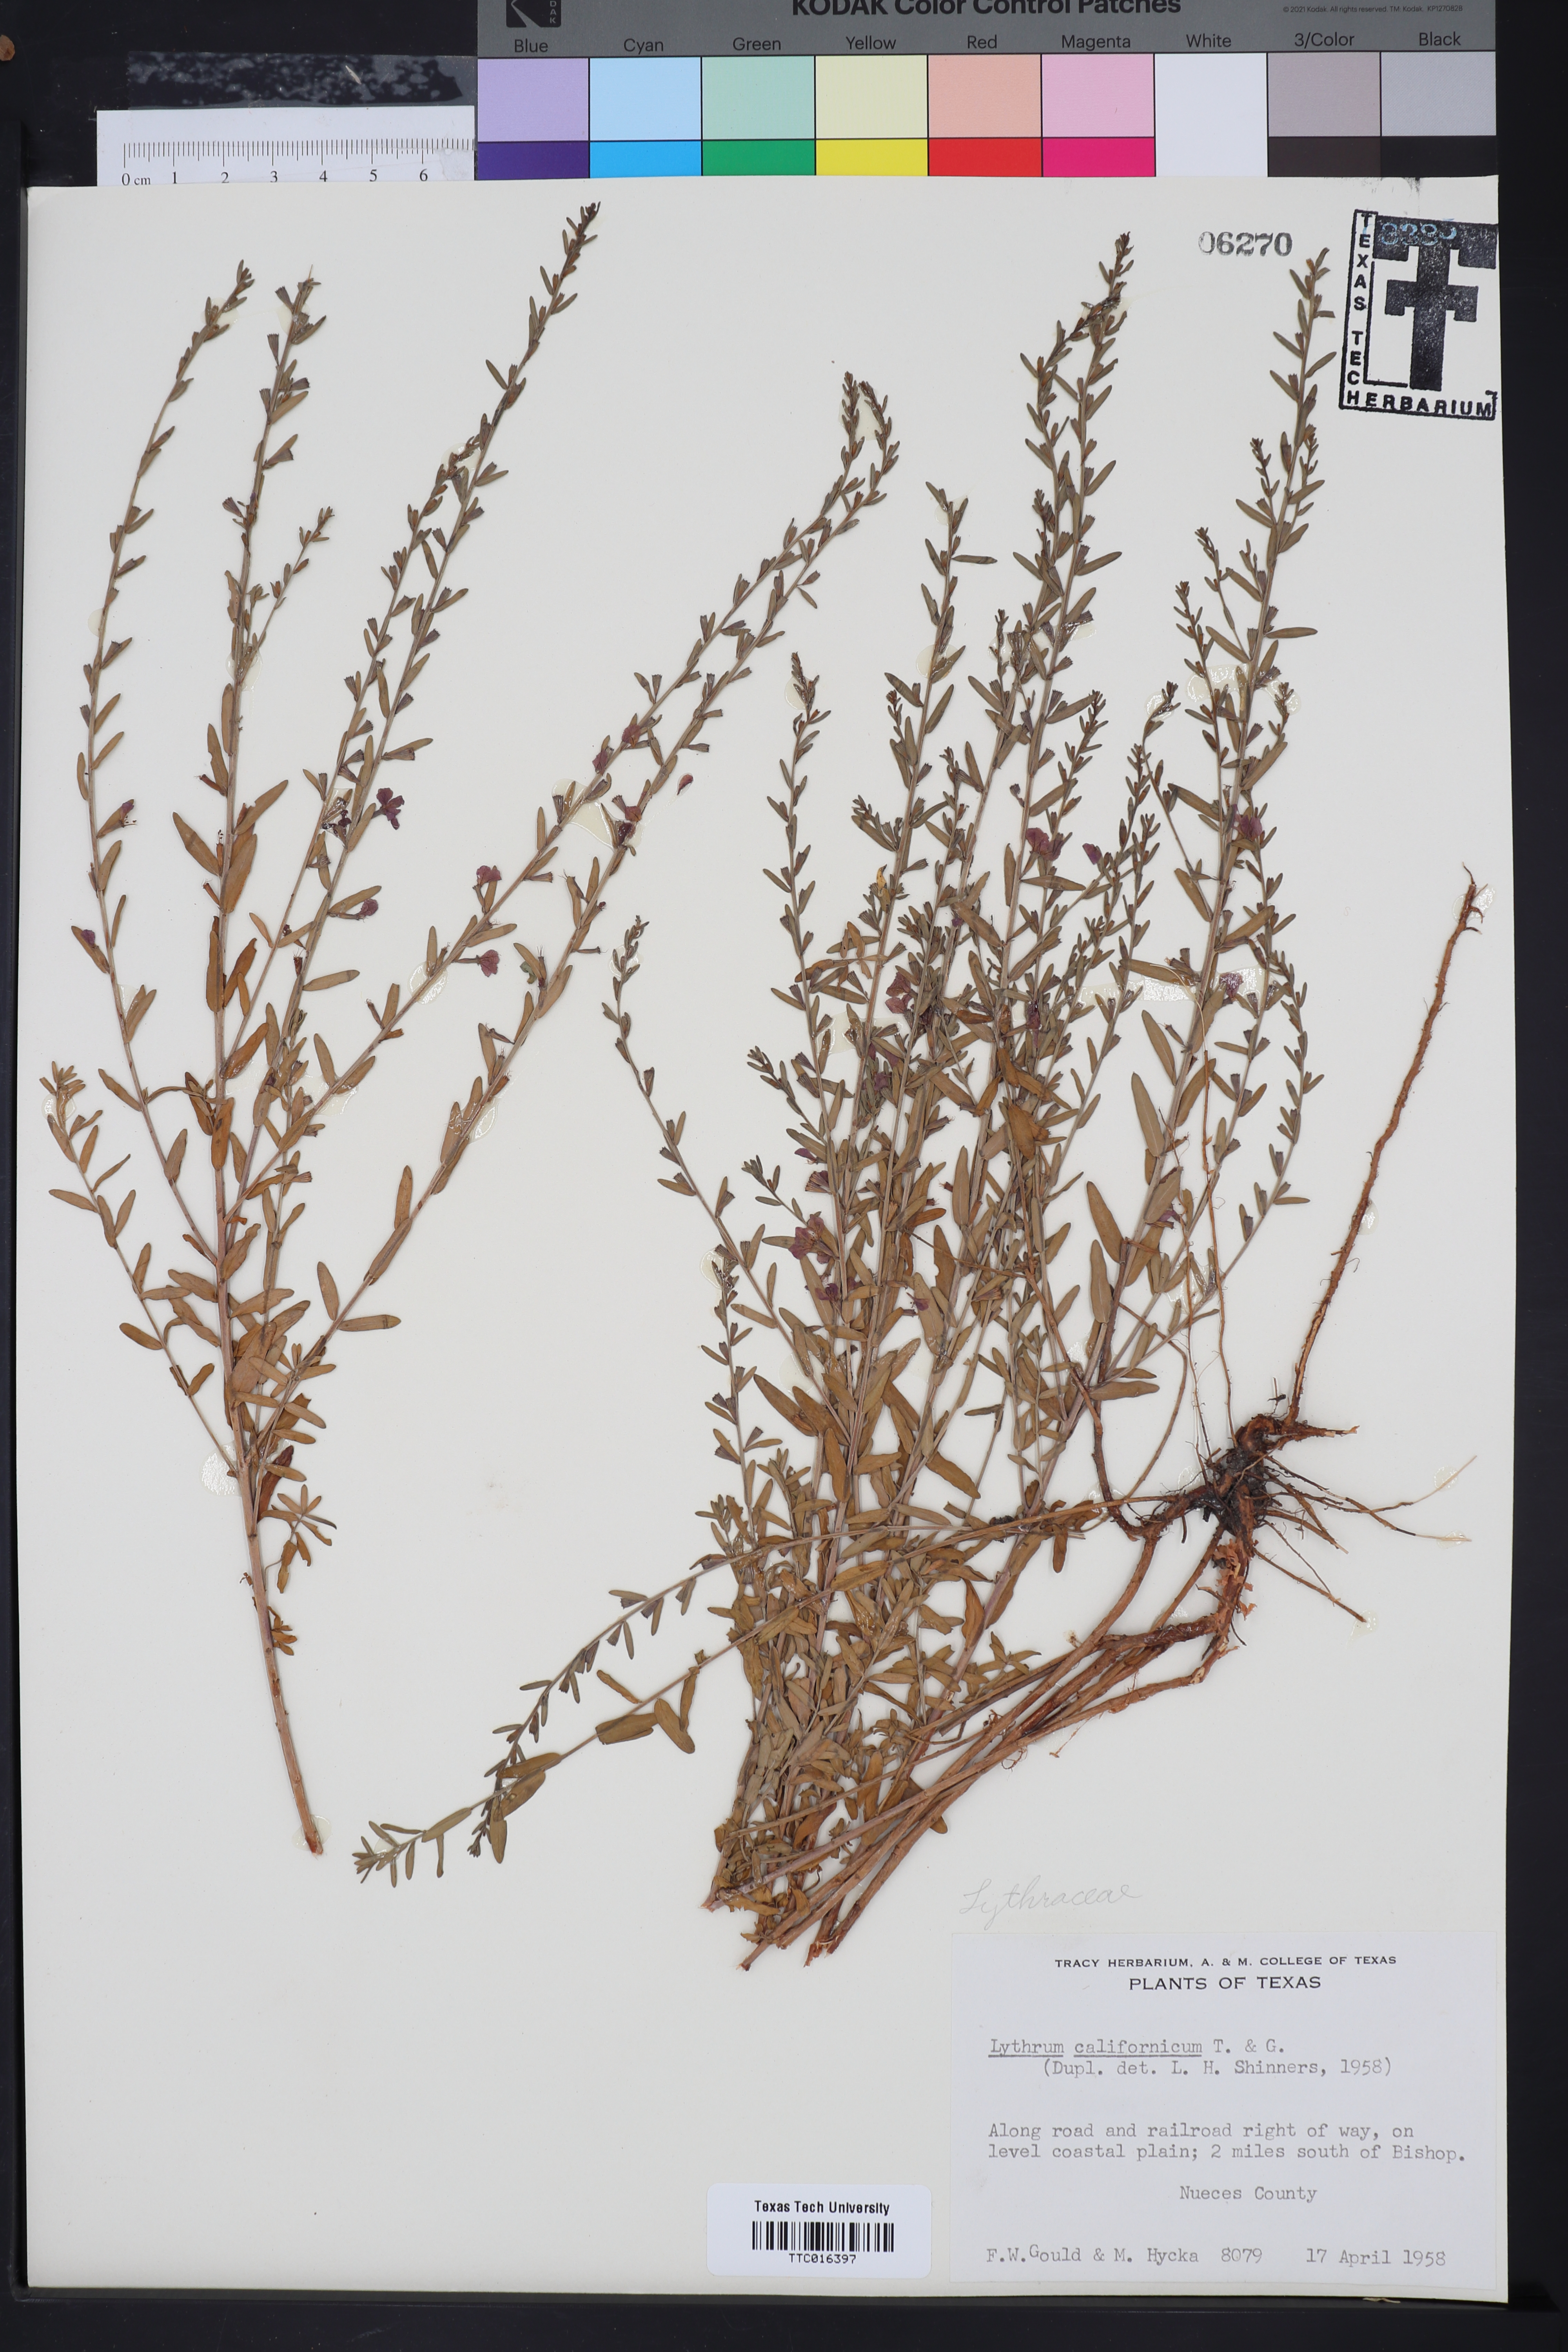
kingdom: Plantae
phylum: Tracheophyta
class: Magnoliopsida
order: Myrtales
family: Lythraceae
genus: Lythrum
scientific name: Lythrum californicum
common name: California loosestrife
